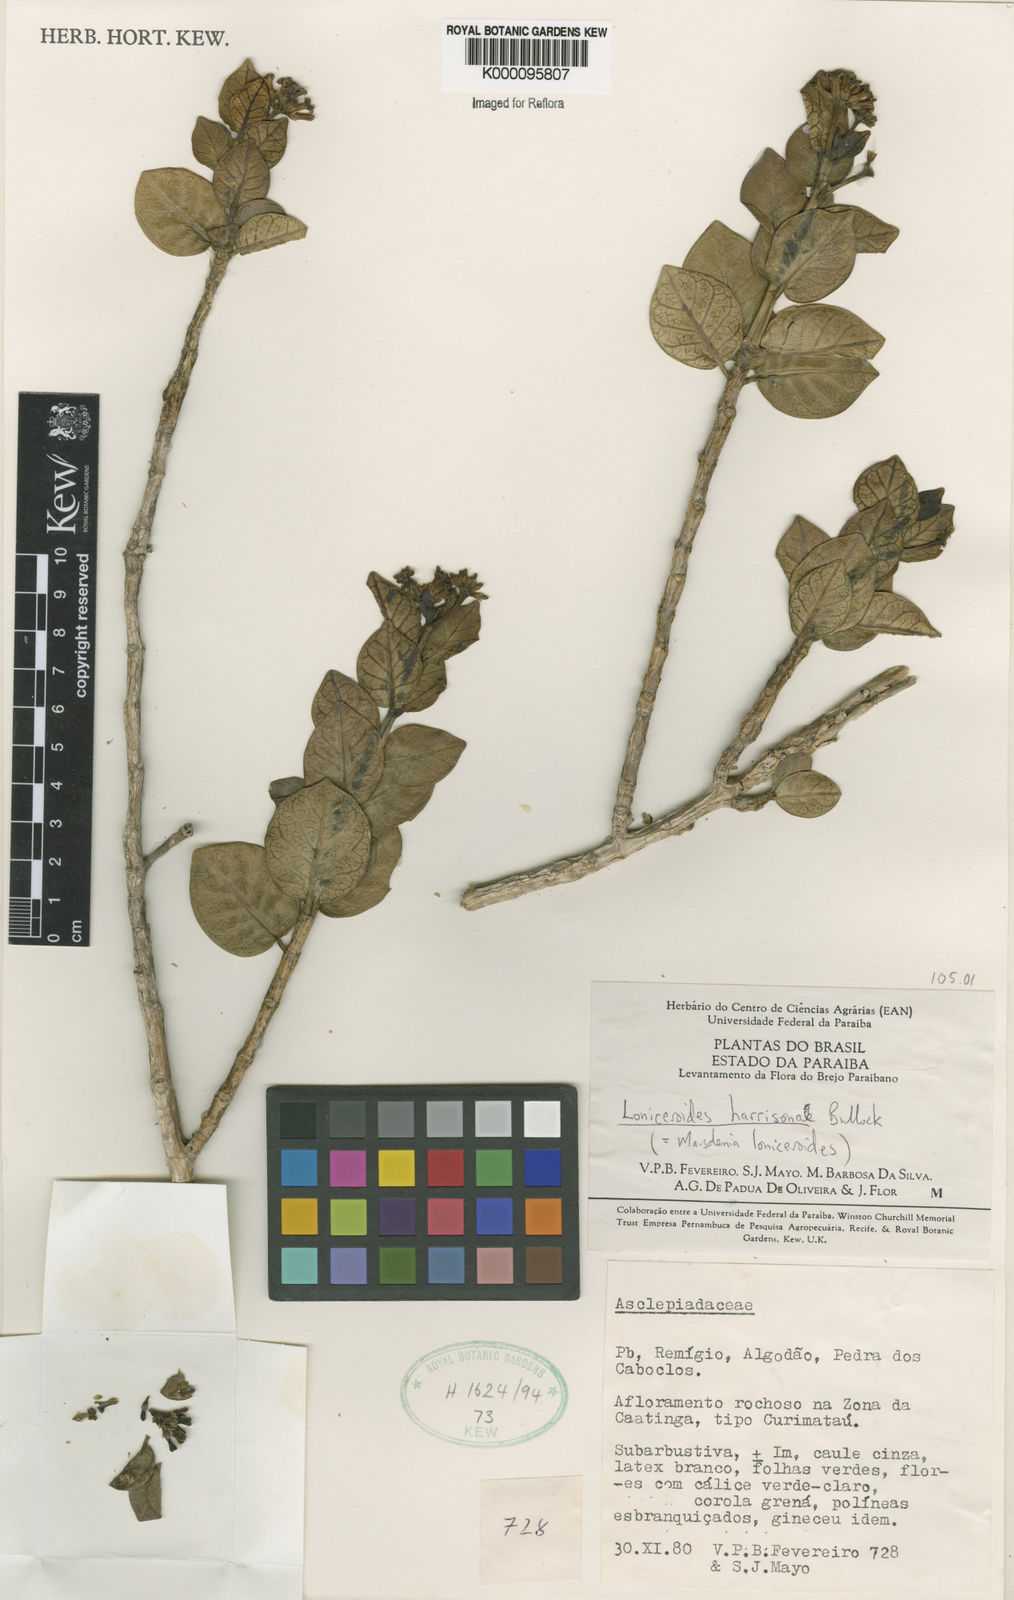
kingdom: Plantae
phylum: Tracheophyta
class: Magnoliopsida
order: Gentianales
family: Apocynaceae
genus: Ruehssia
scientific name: Ruehssia loniceroides
